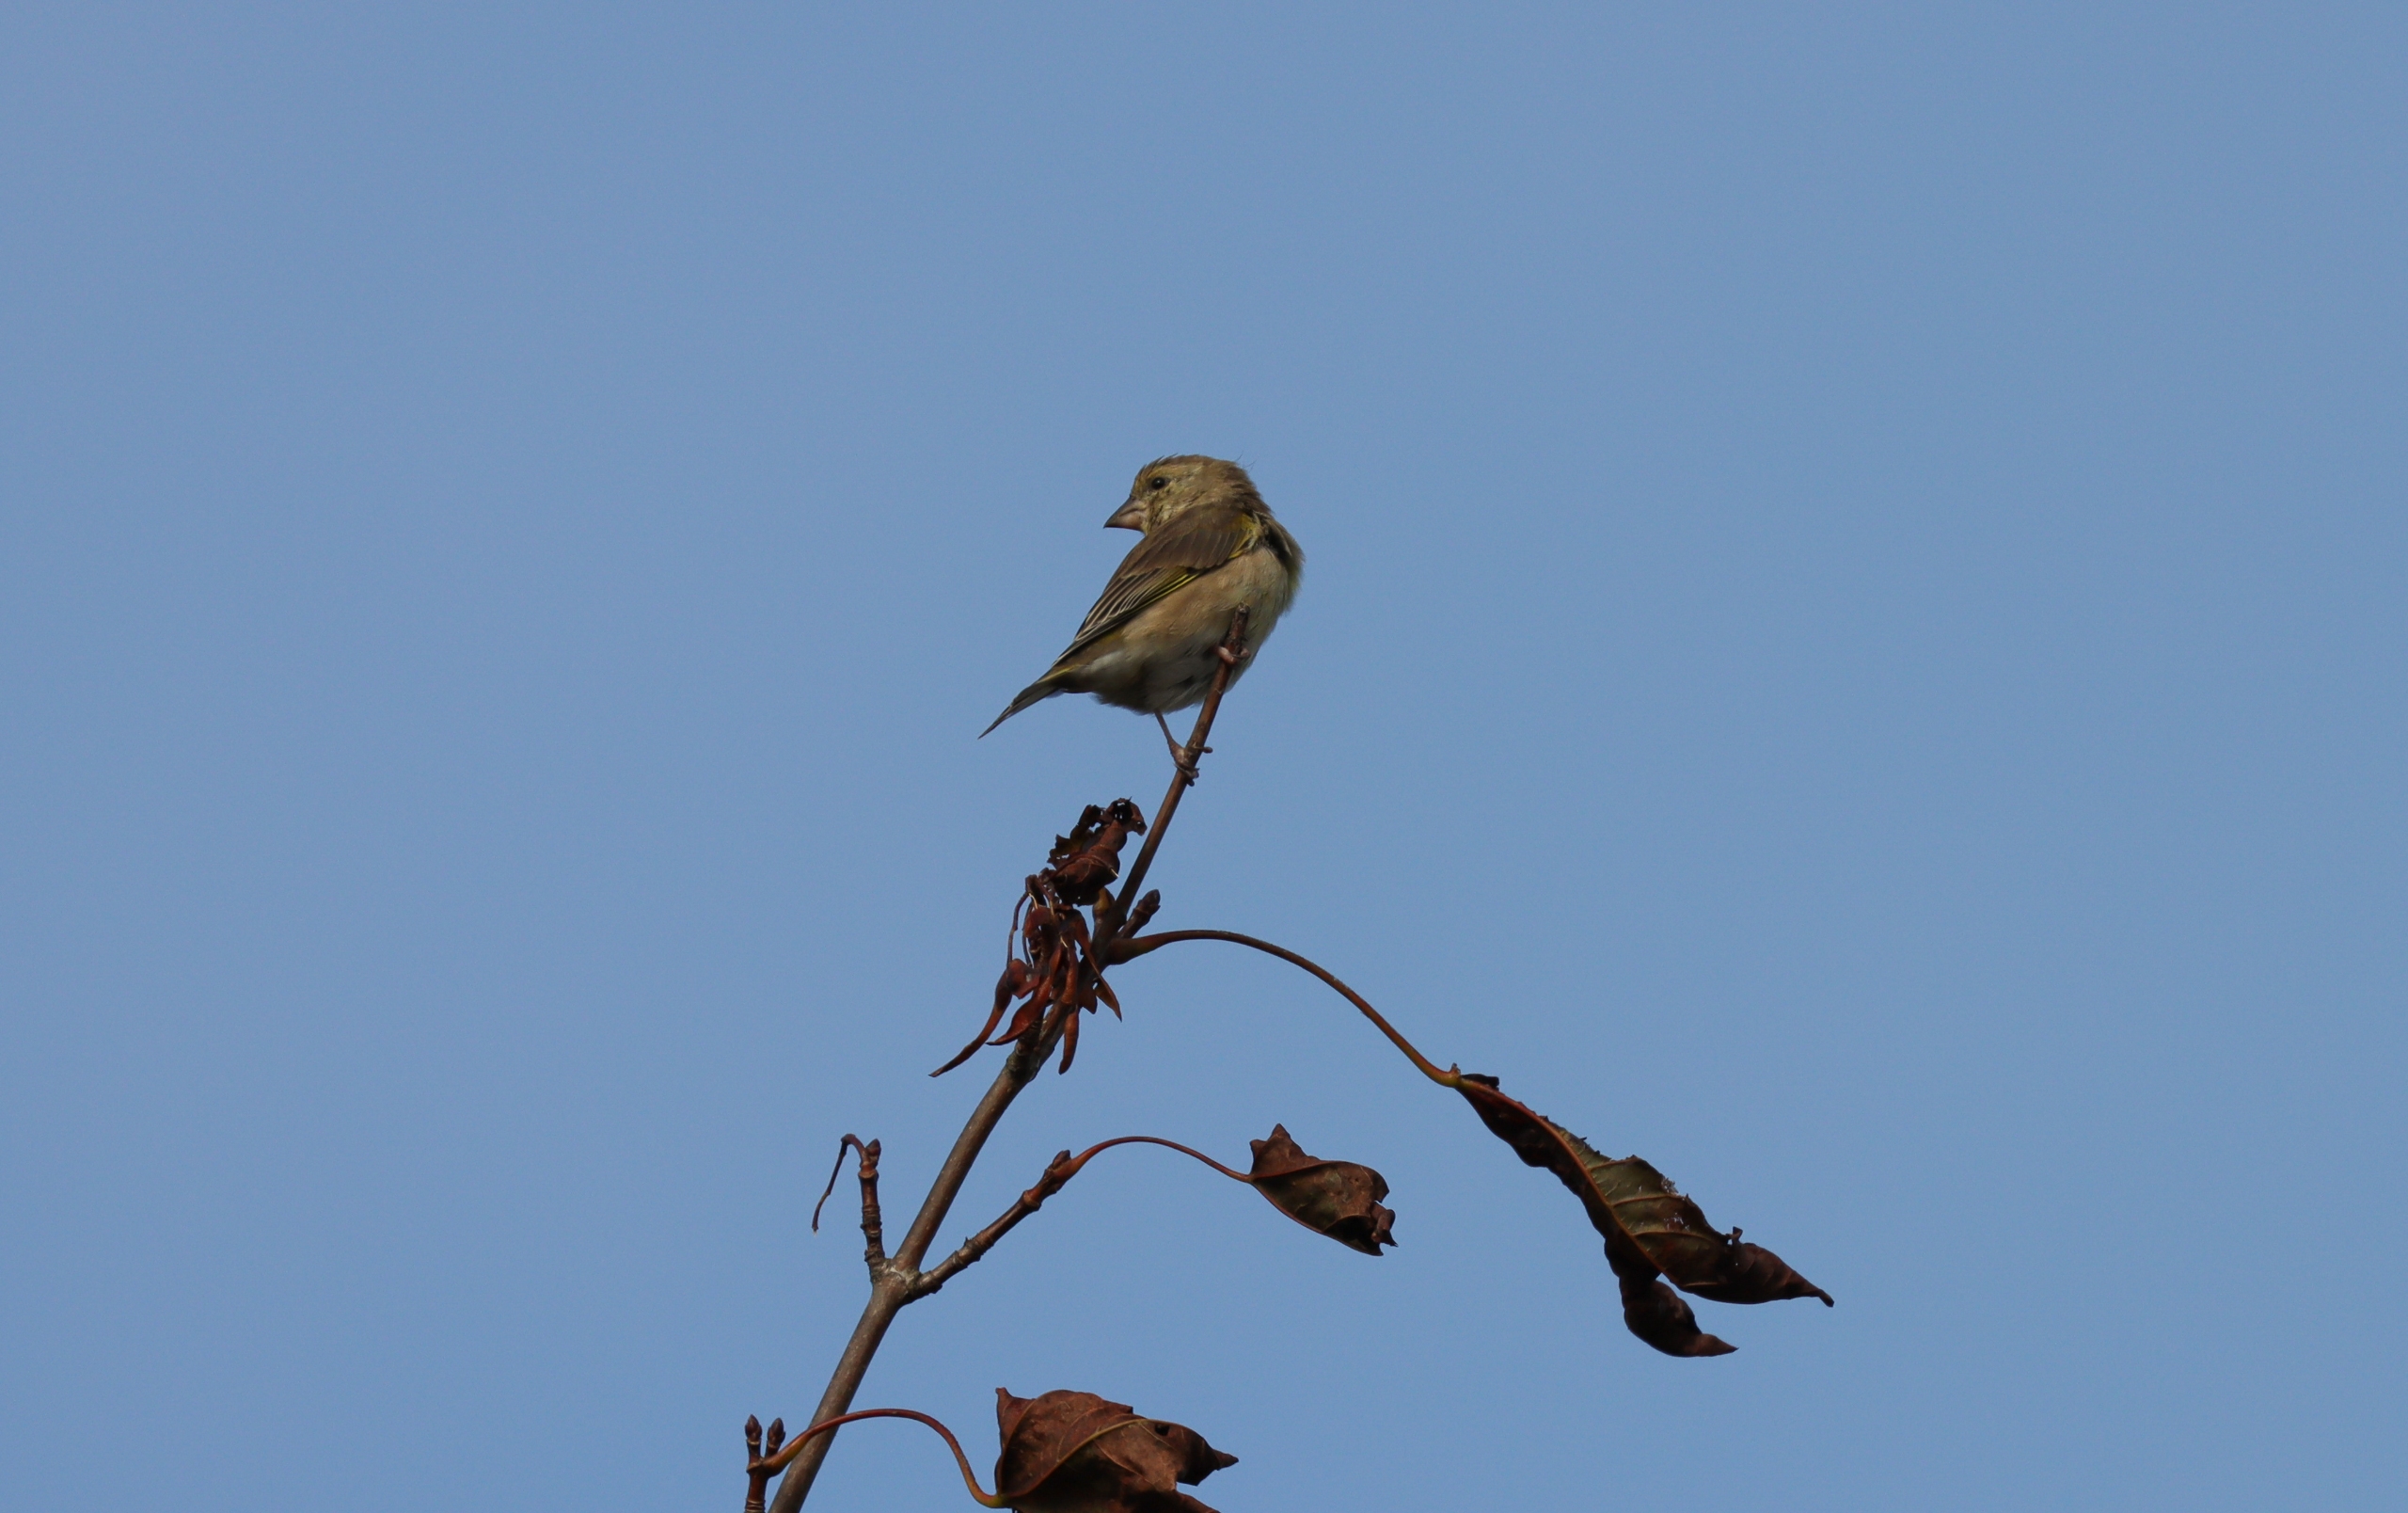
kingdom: Plantae
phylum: Tracheophyta
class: Liliopsida
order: Poales
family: Poaceae
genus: Chloris
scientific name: Chloris chloris
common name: Grønirisk
